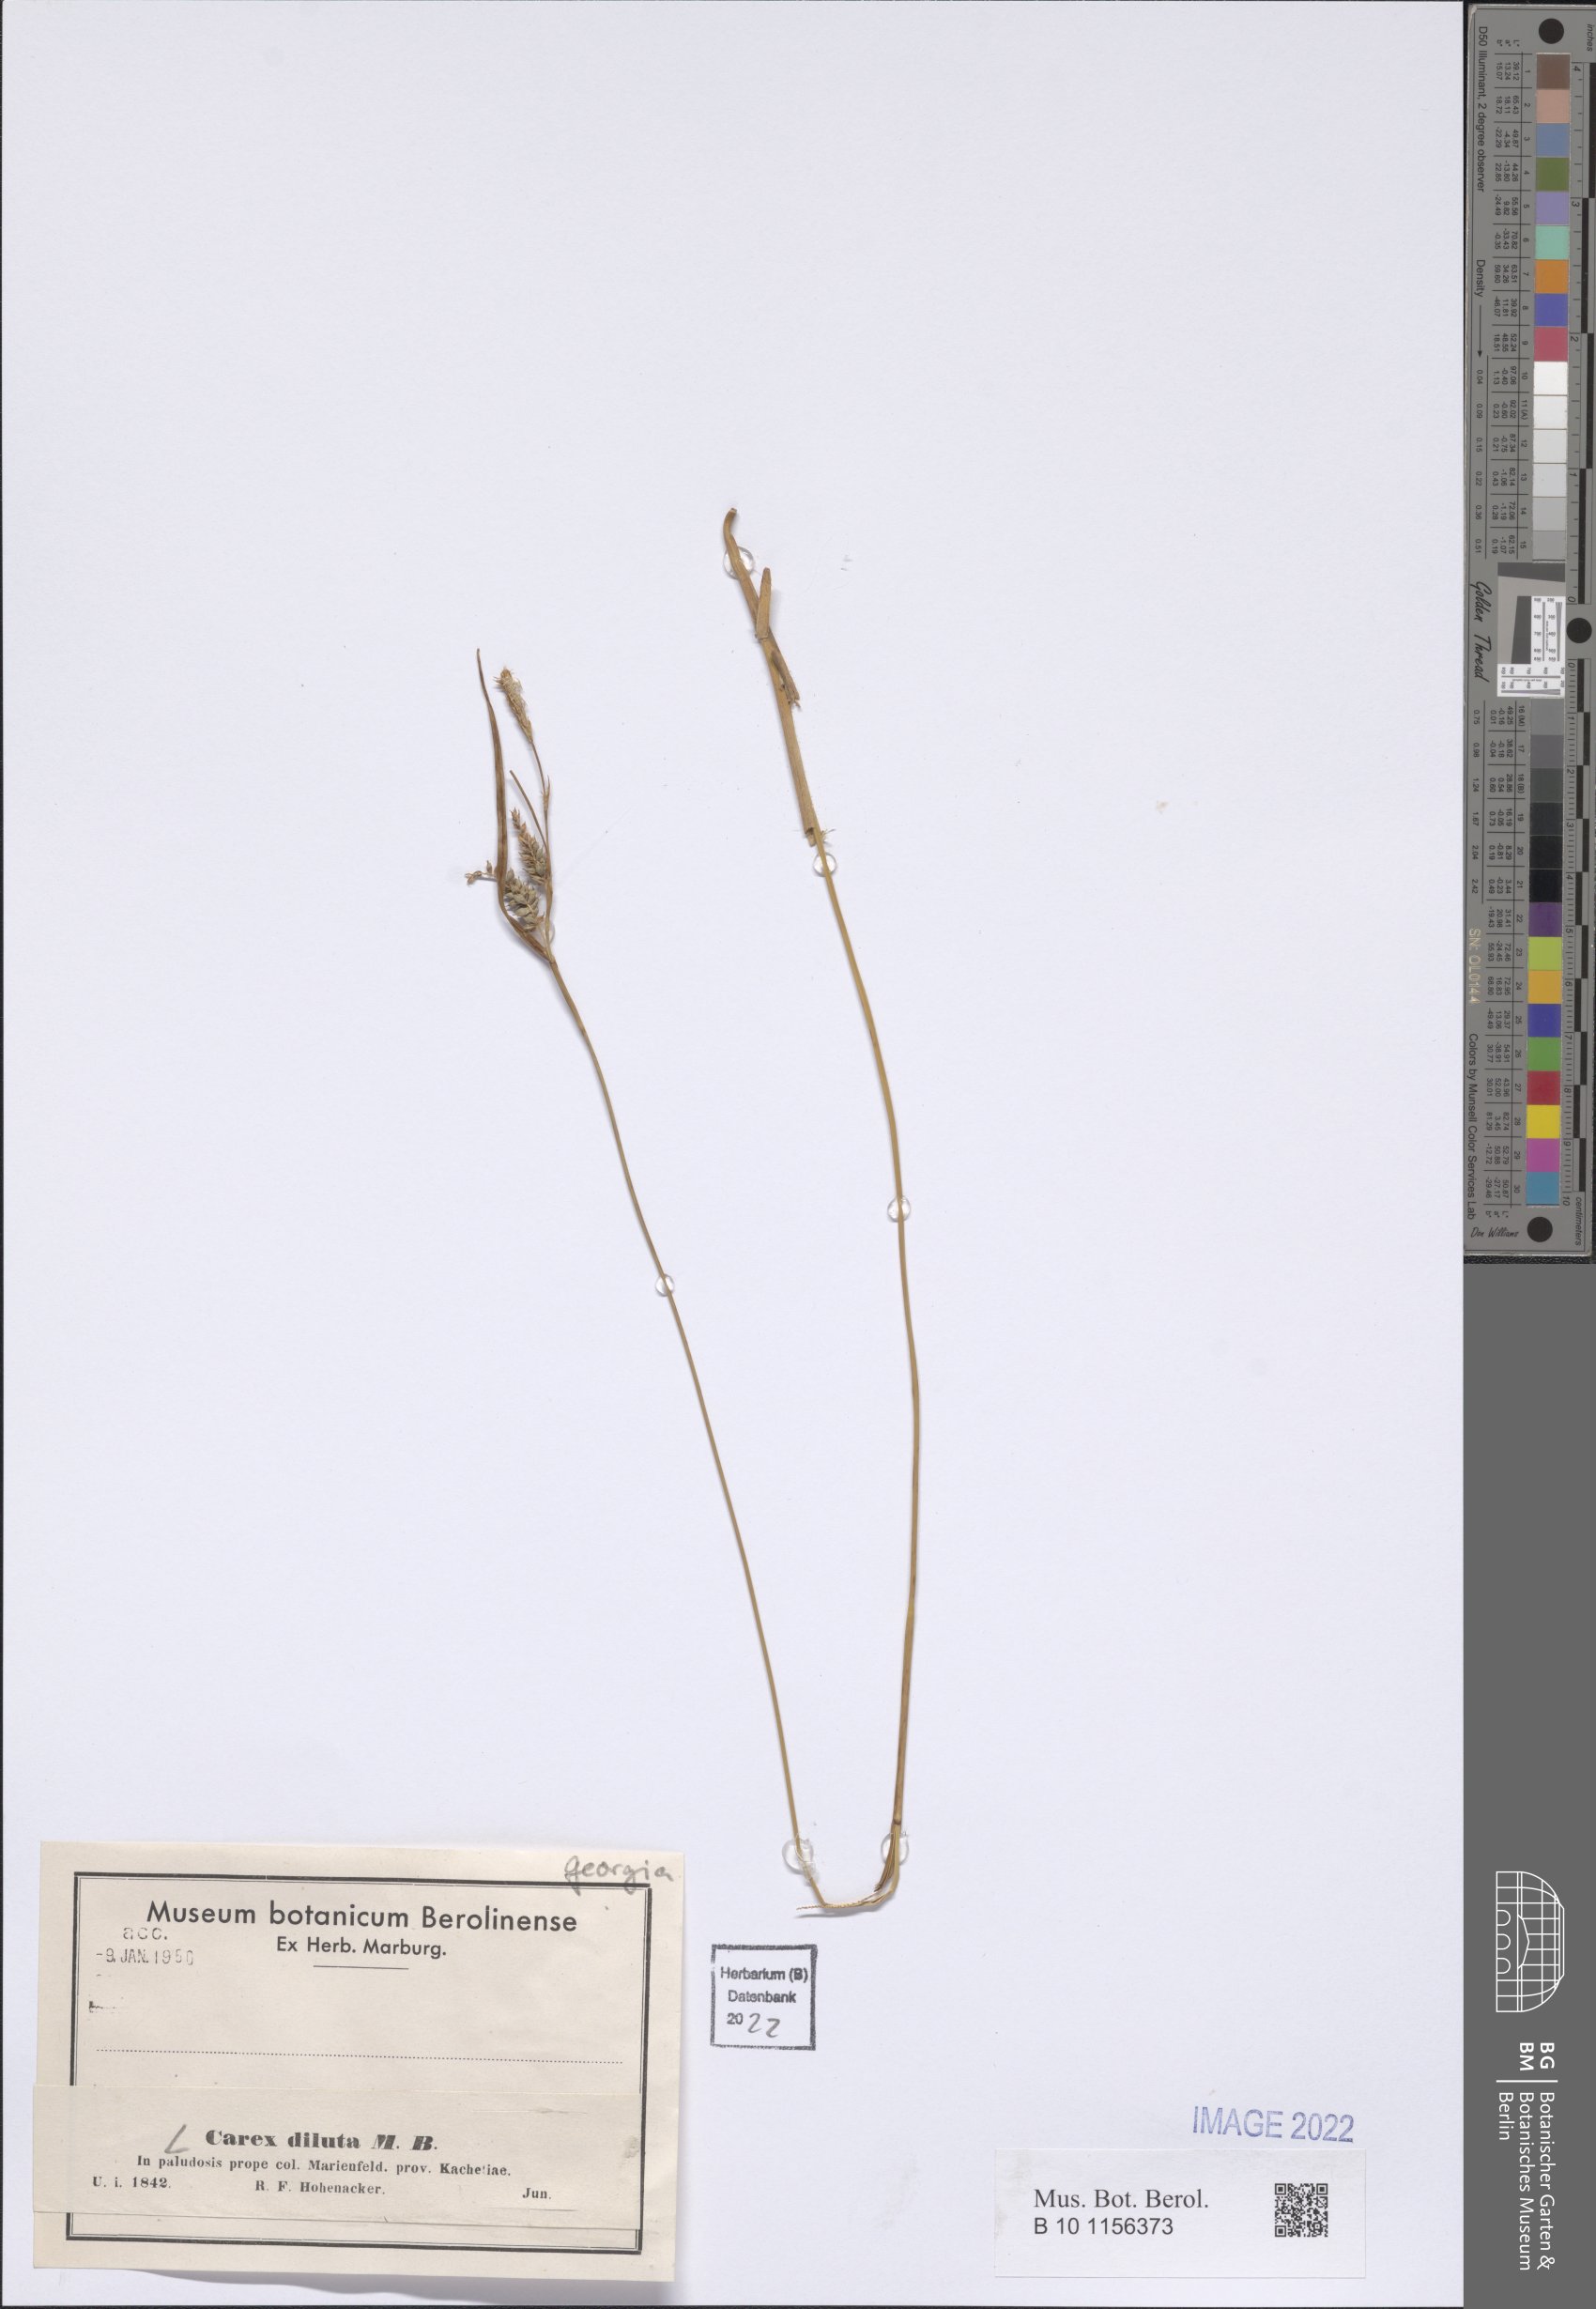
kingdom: Plantae
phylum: Tracheophyta
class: Liliopsida
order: Poales
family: Cyperaceae
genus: Carex
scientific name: Carex diluta
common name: Sedge
